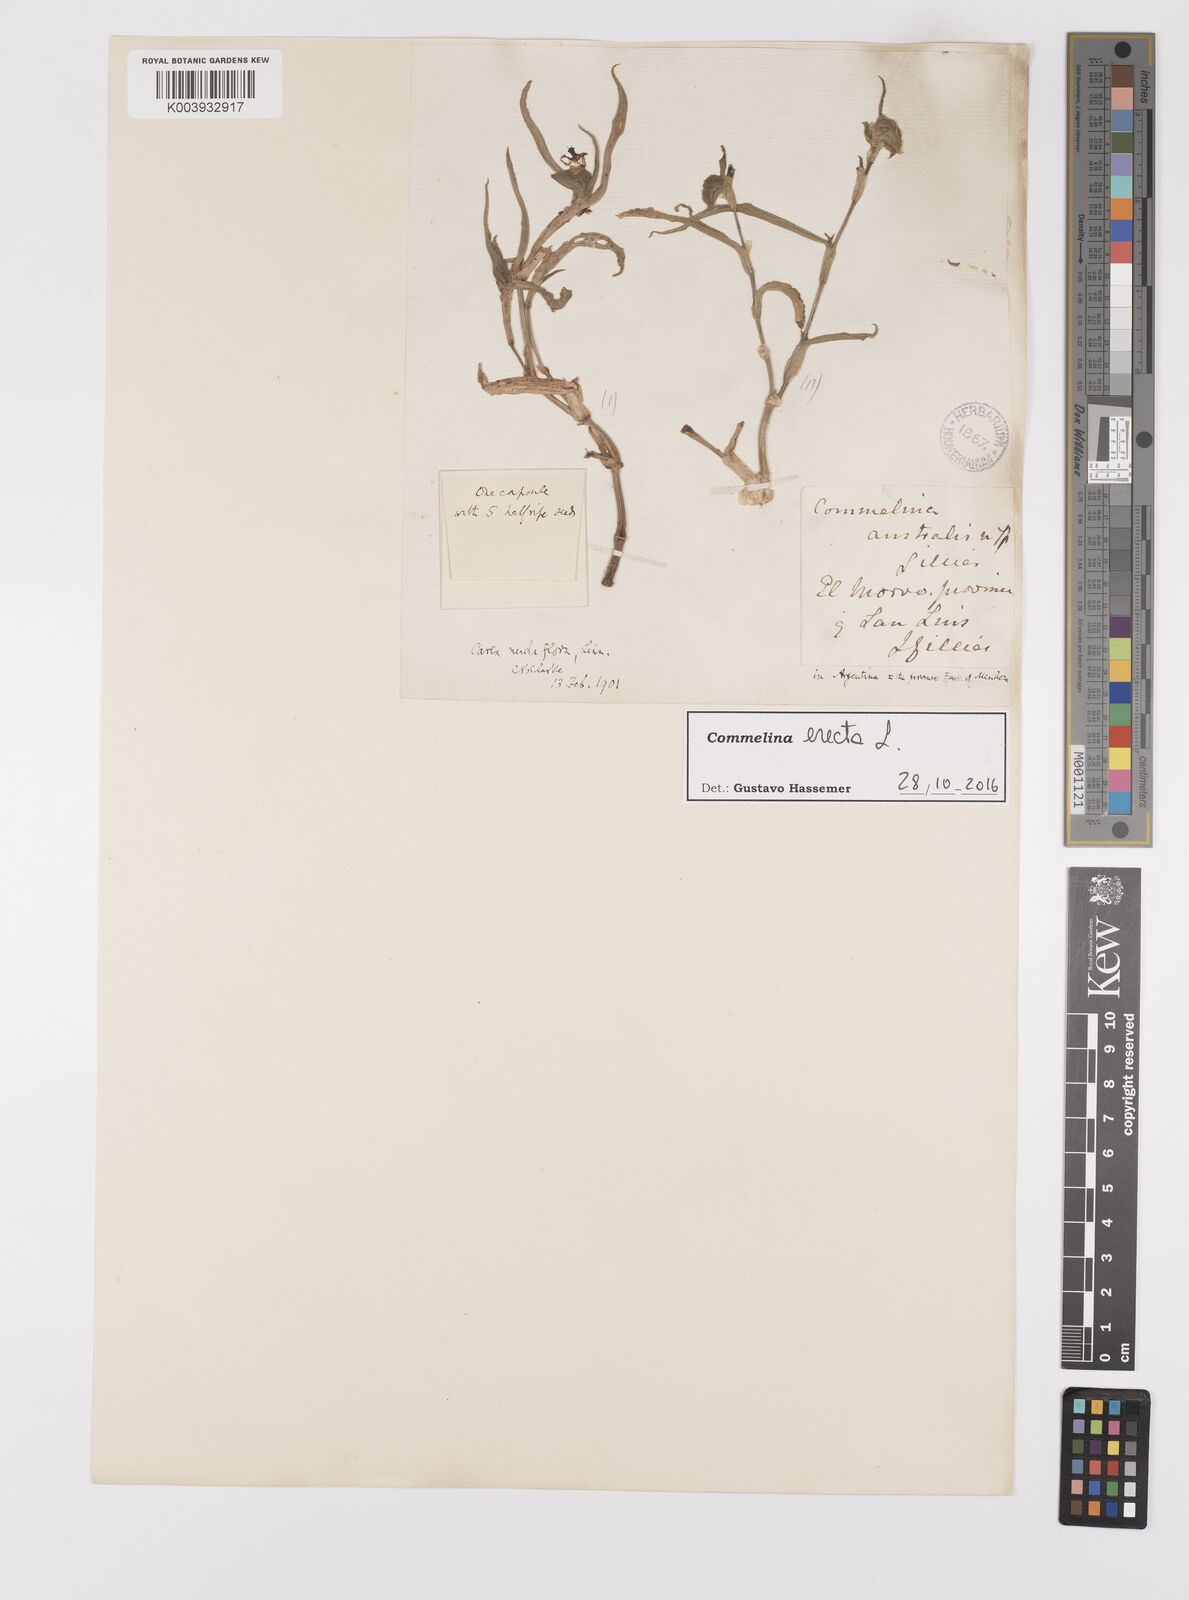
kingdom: Plantae
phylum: Tracheophyta
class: Liliopsida
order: Commelinales
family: Commelinaceae
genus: Commelina
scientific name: Commelina erecta
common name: Blousel blommetjie
